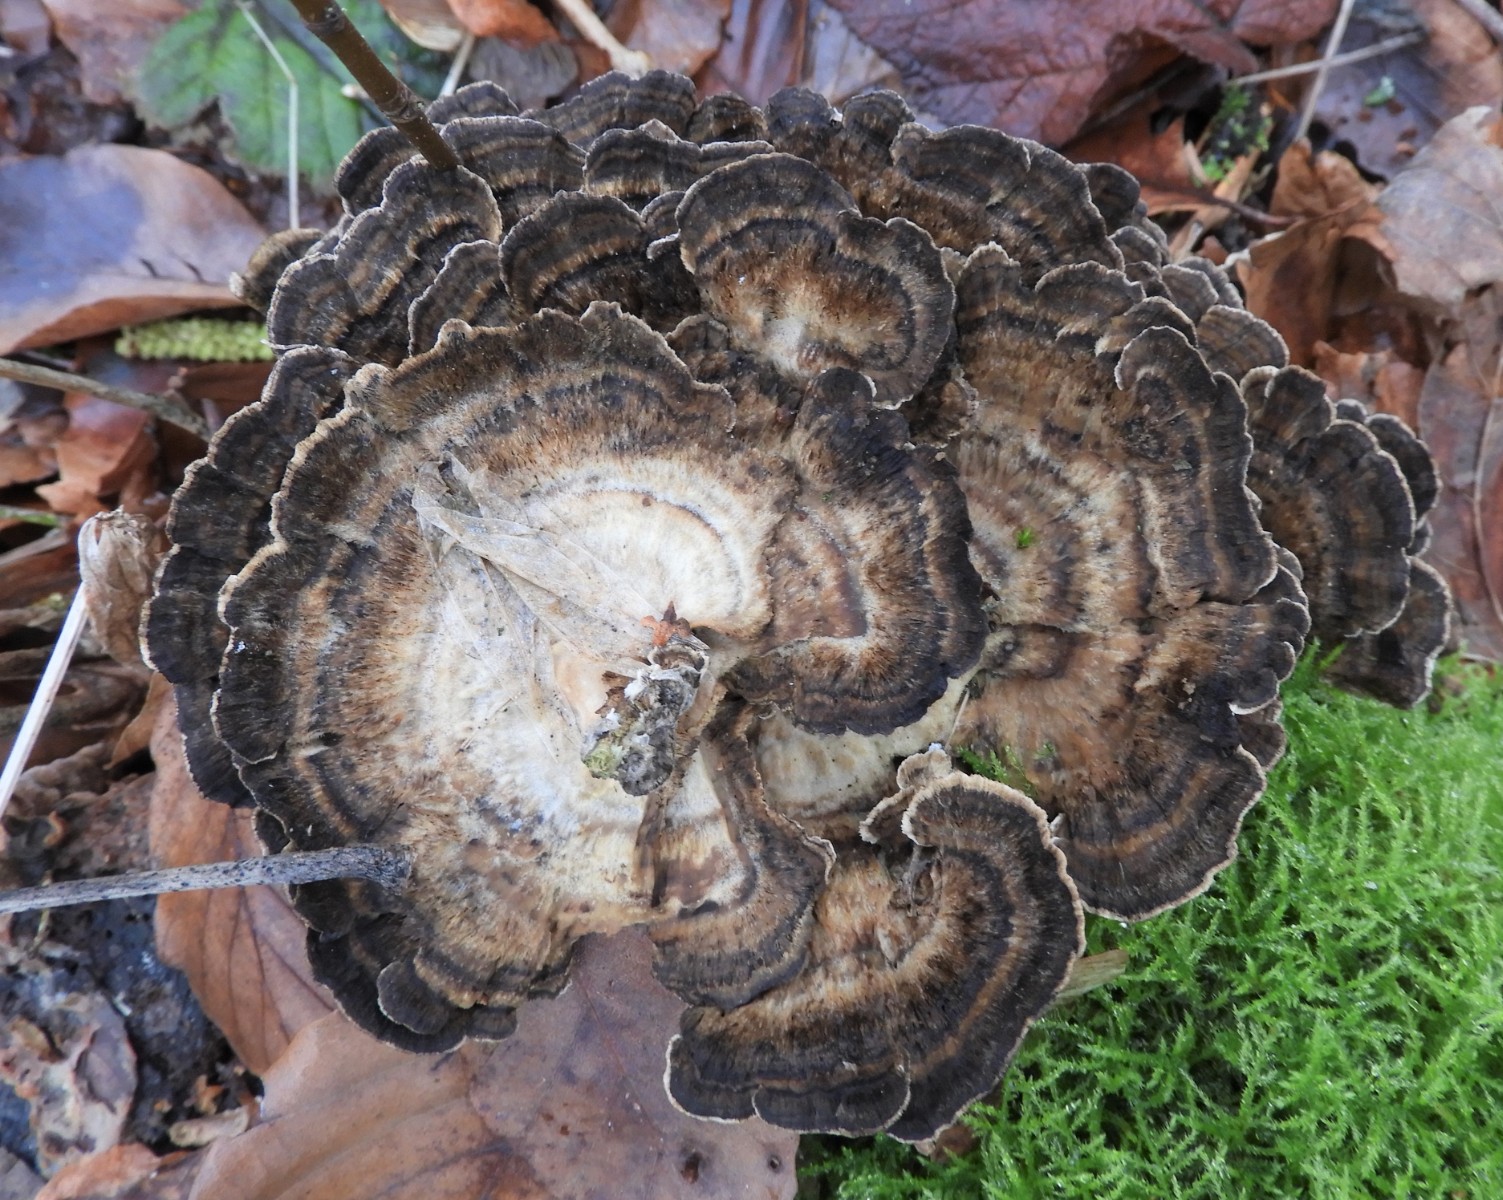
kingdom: Fungi
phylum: Basidiomycota
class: Agaricomycetes
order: Polyporales
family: Phanerochaetaceae
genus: Bjerkandera
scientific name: Bjerkandera adusta
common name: sveden sodporesvamp
